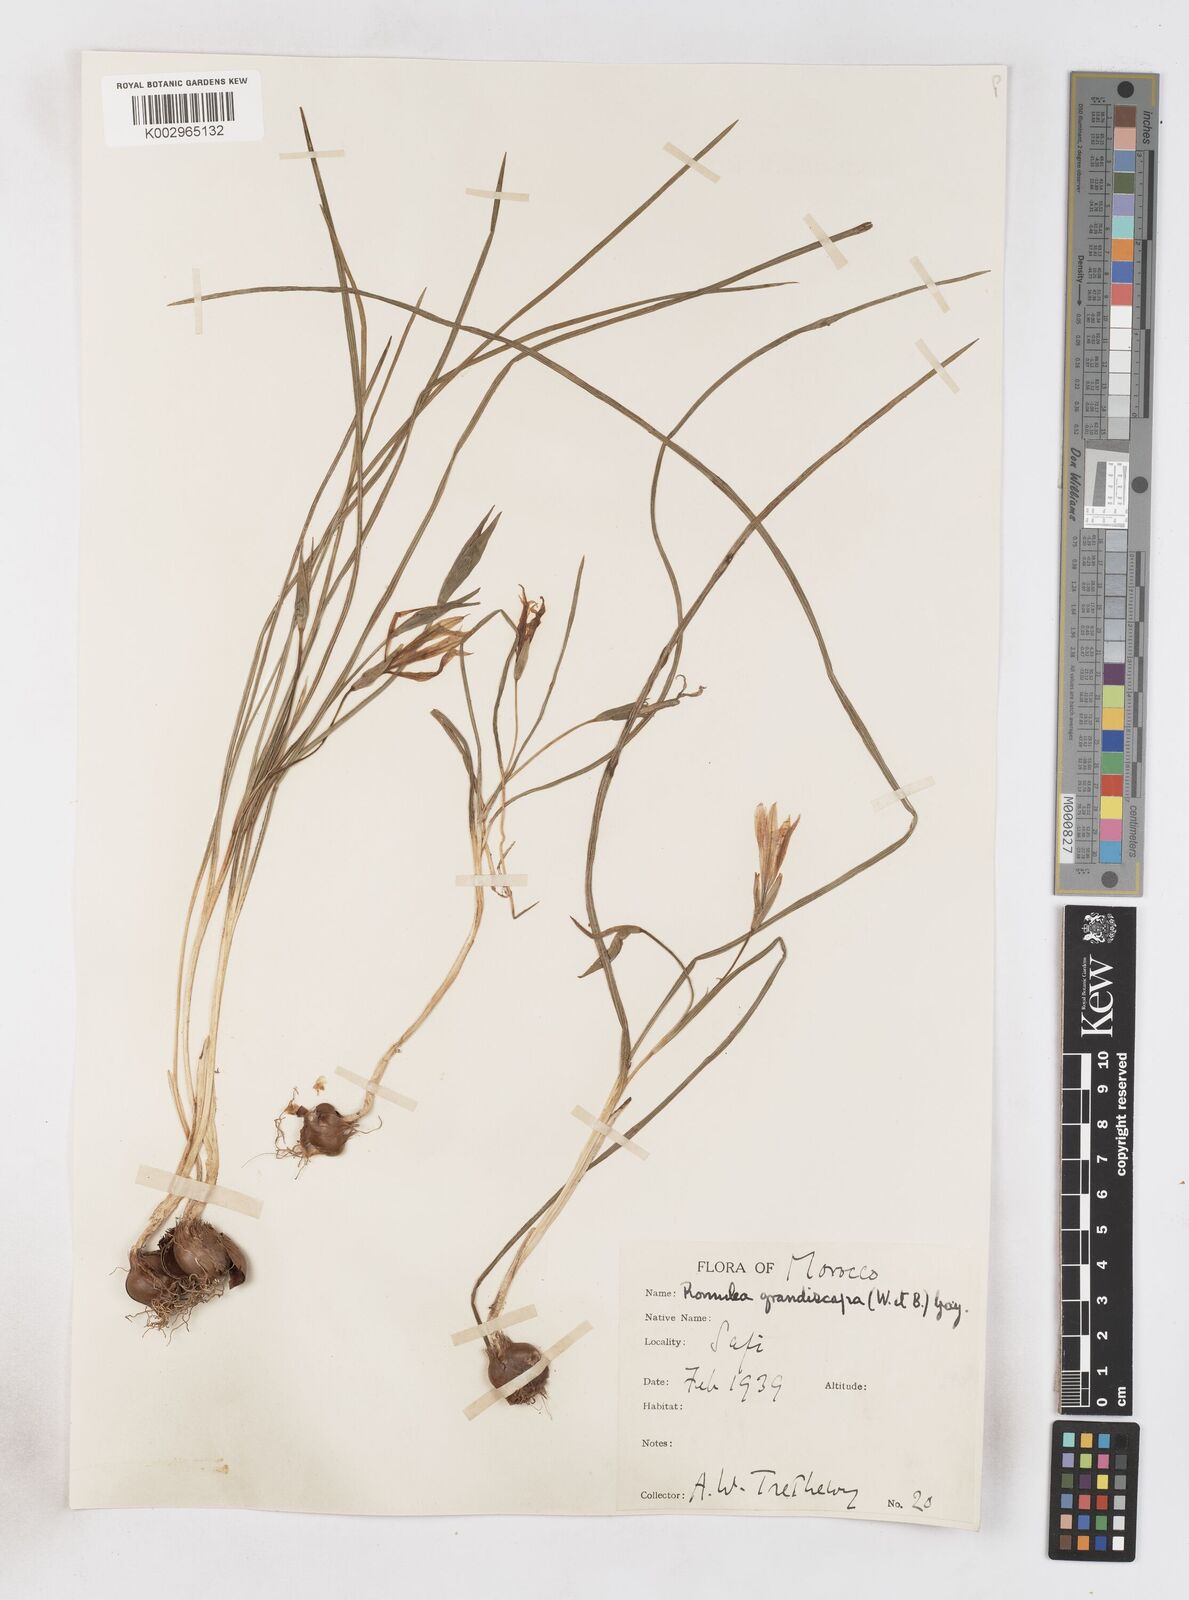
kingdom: Plantae
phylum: Tracheophyta
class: Liliopsida
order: Asparagales
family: Iridaceae
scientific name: Iridaceae
